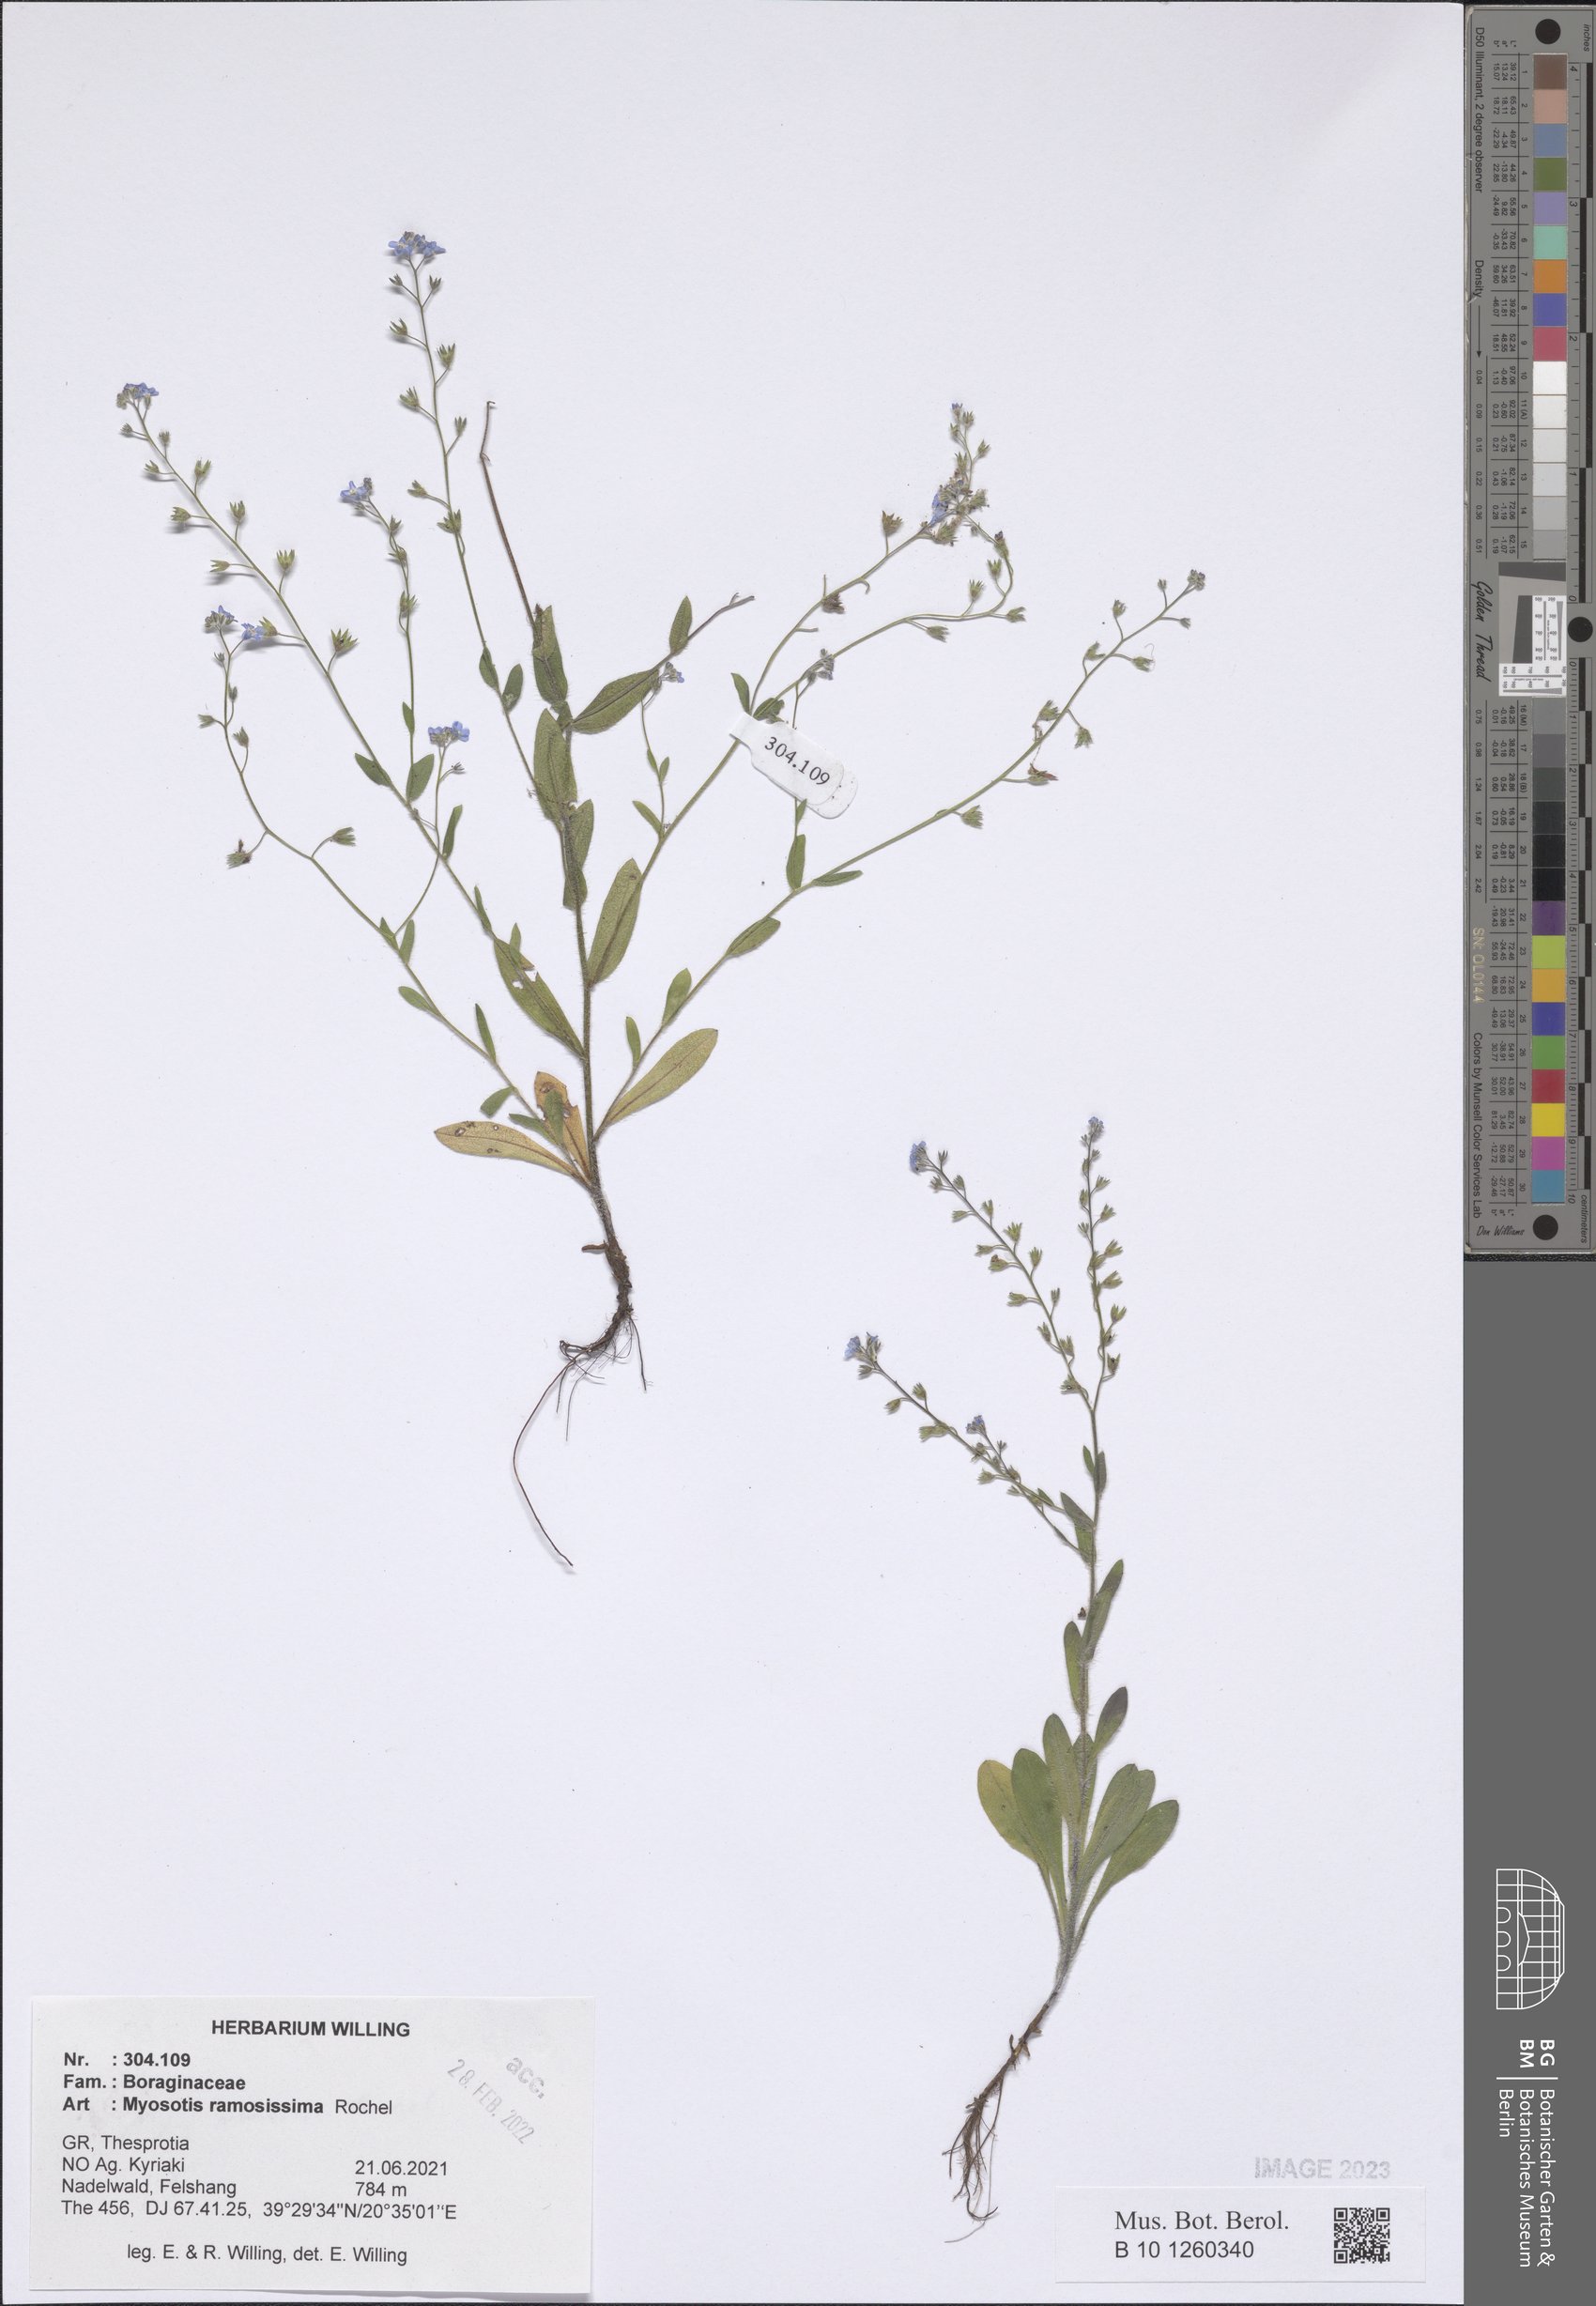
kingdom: Plantae
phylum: Tracheophyta
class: Magnoliopsida
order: Boraginales
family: Boraginaceae
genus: Myosotis
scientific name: Myosotis ramosissima
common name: Early forget-me-not
